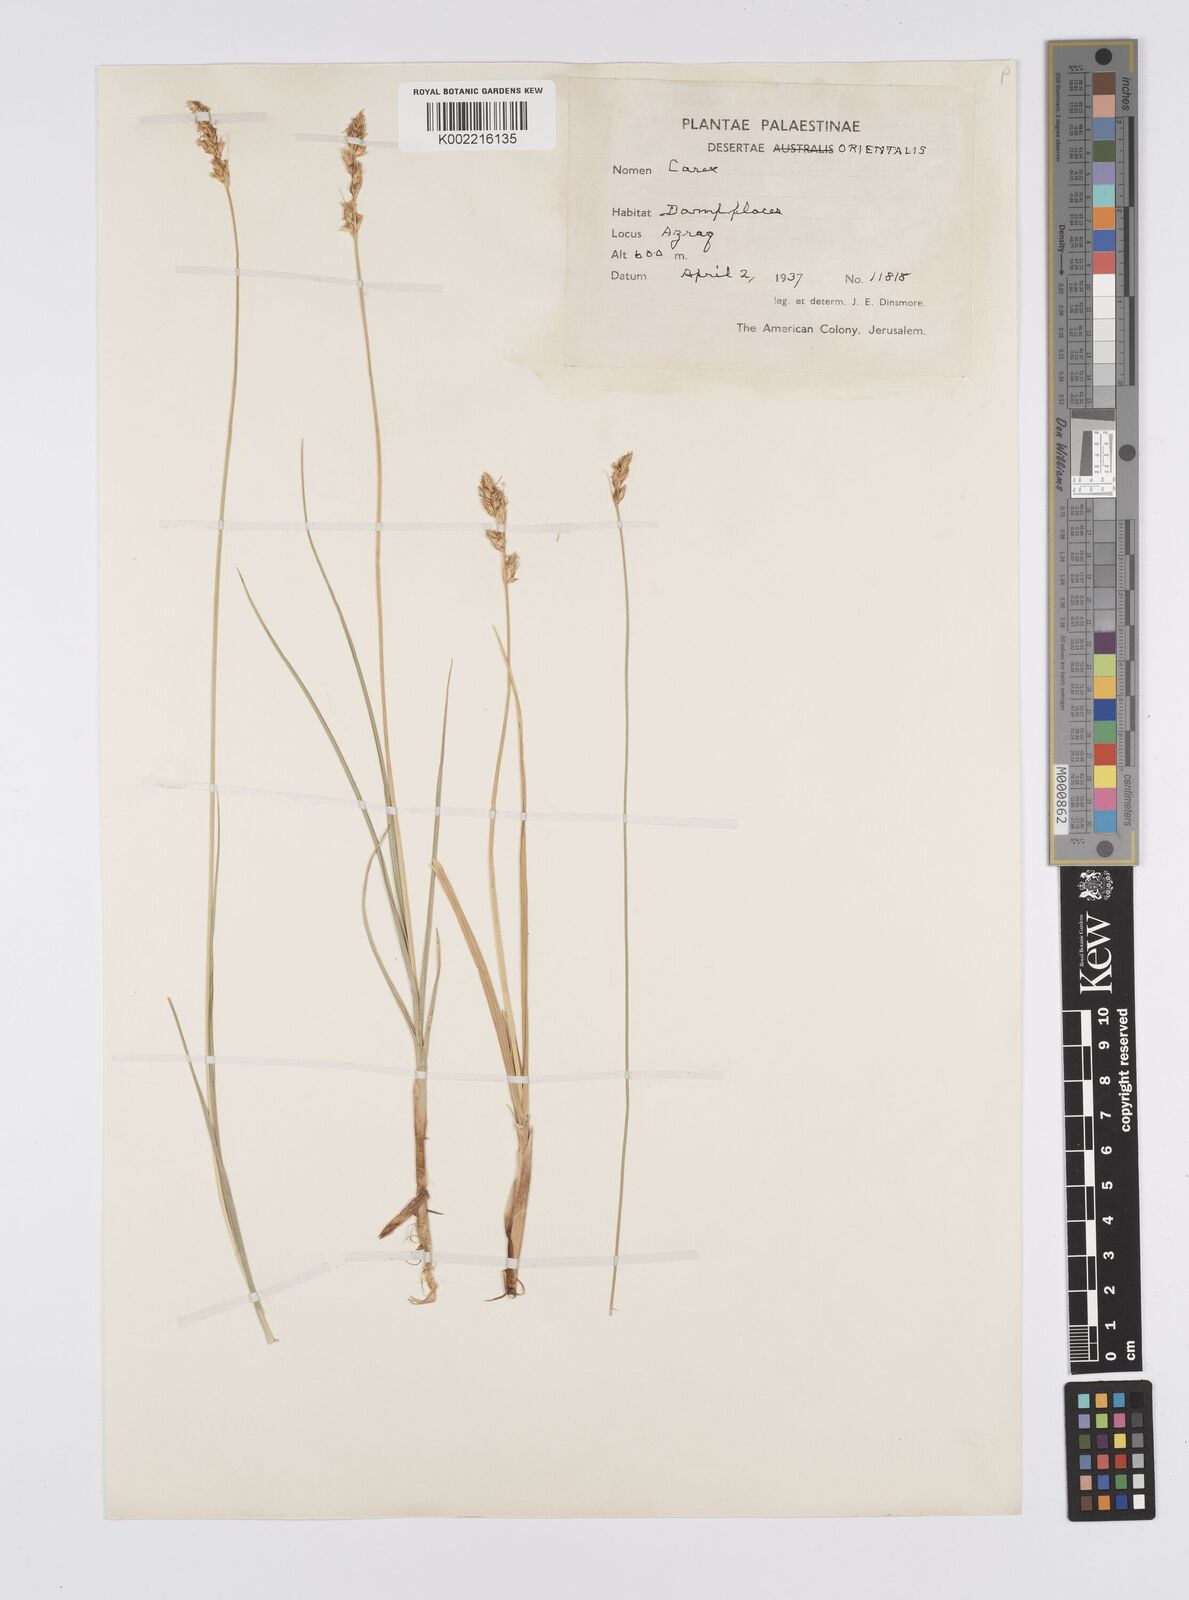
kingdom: Plantae
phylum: Tracheophyta
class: Liliopsida
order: Poales
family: Cyperaceae
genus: Carex
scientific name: Carex divisa
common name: Divided sedge
